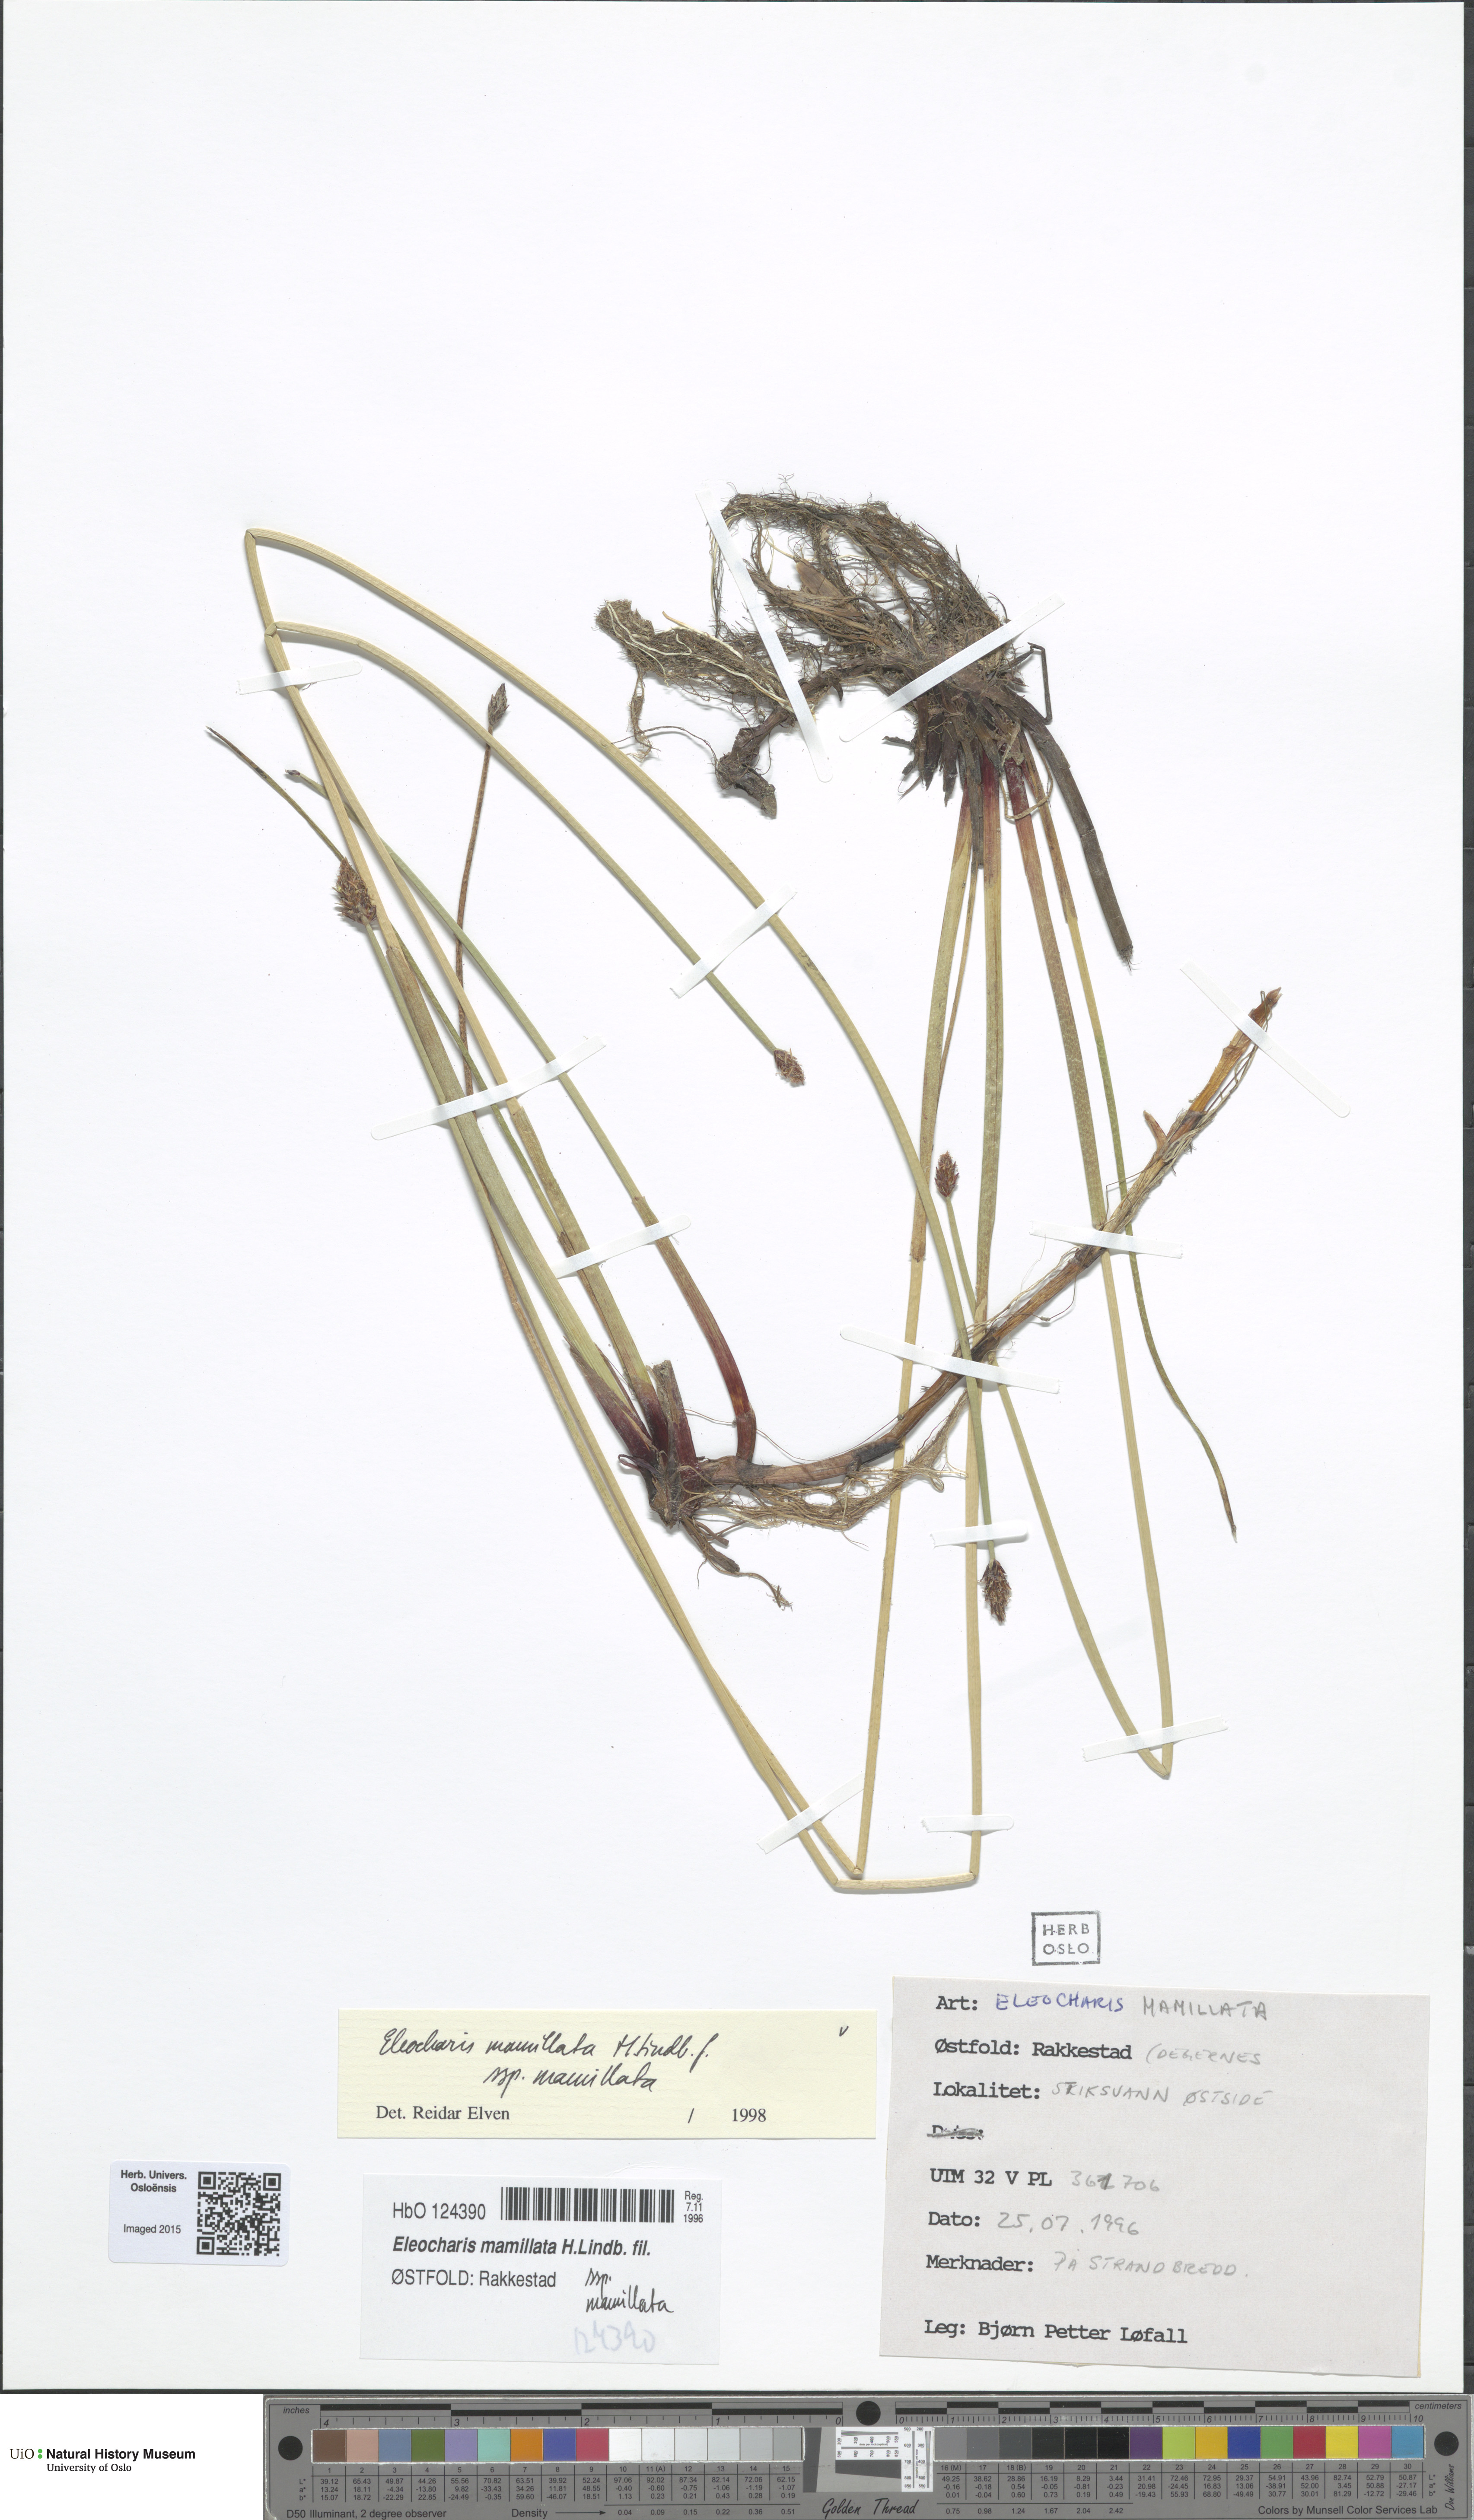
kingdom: Plantae
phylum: Tracheophyta
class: Liliopsida
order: Poales
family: Cyperaceae
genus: Eleocharis
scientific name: Eleocharis mamillata
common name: Northern spike-rush
